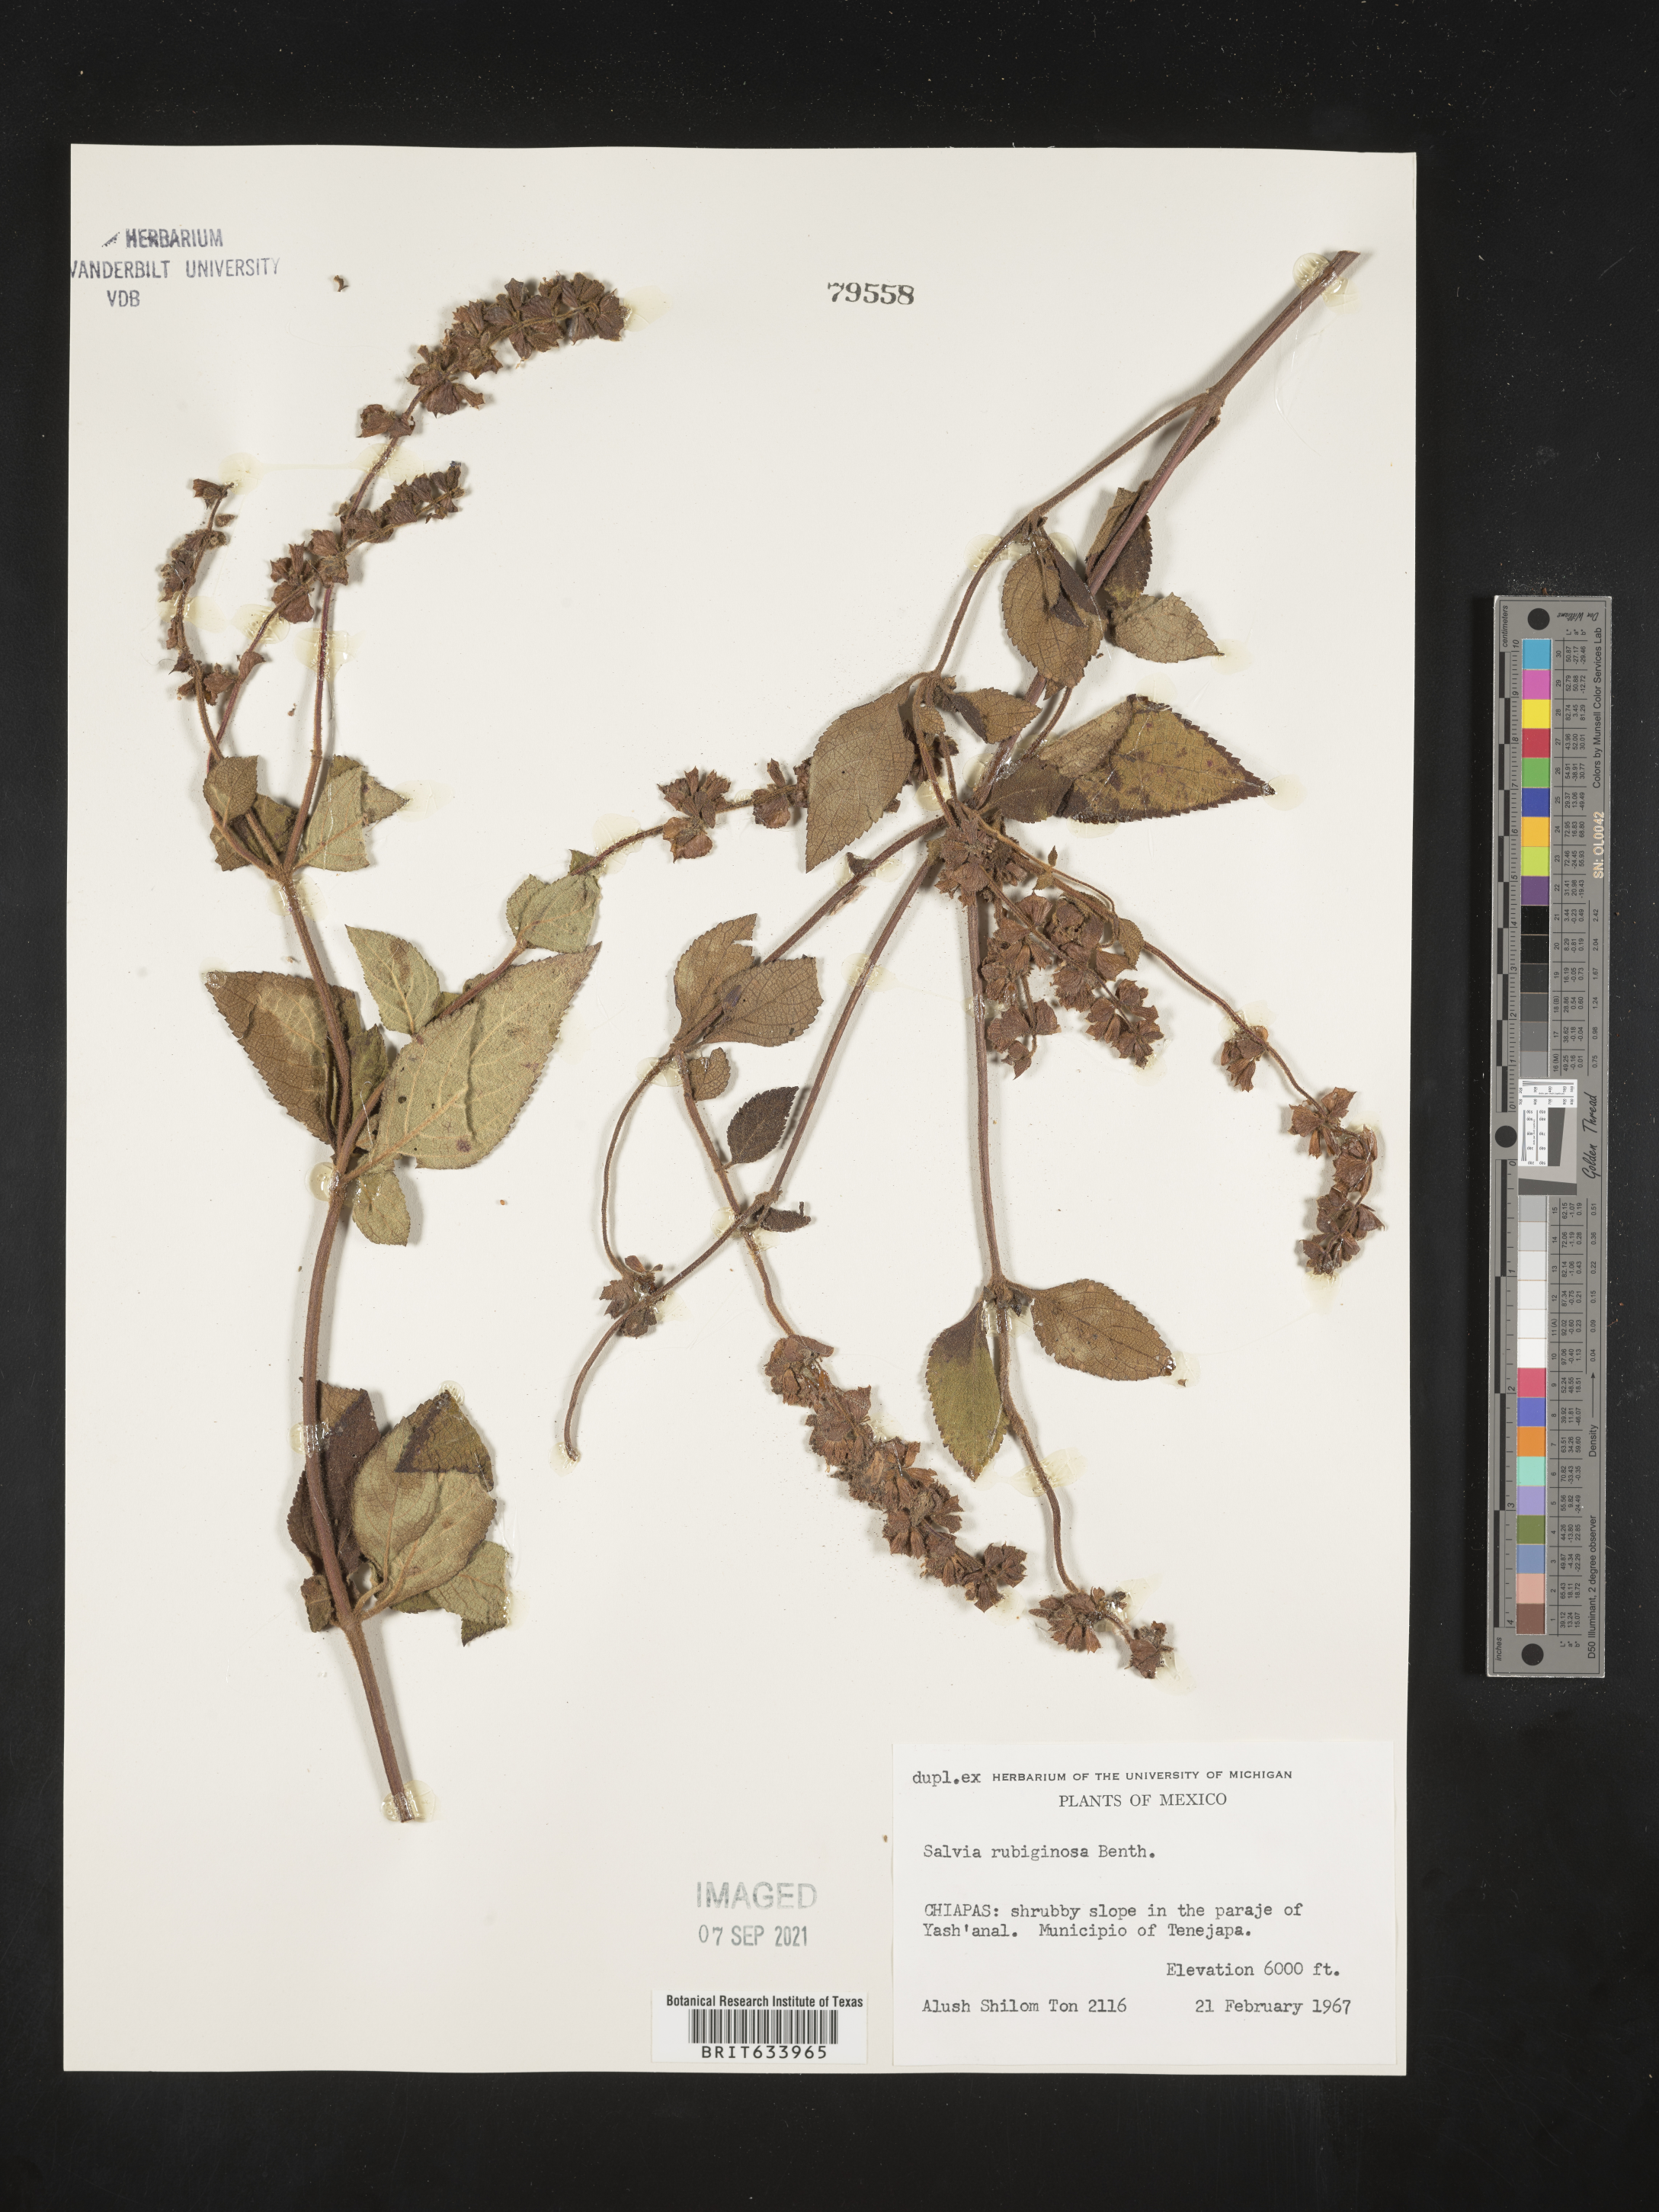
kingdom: Plantae
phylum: Tracheophyta
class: Magnoliopsida
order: Lamiales
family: Lamiaceae
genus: Salvia
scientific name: Salvia
